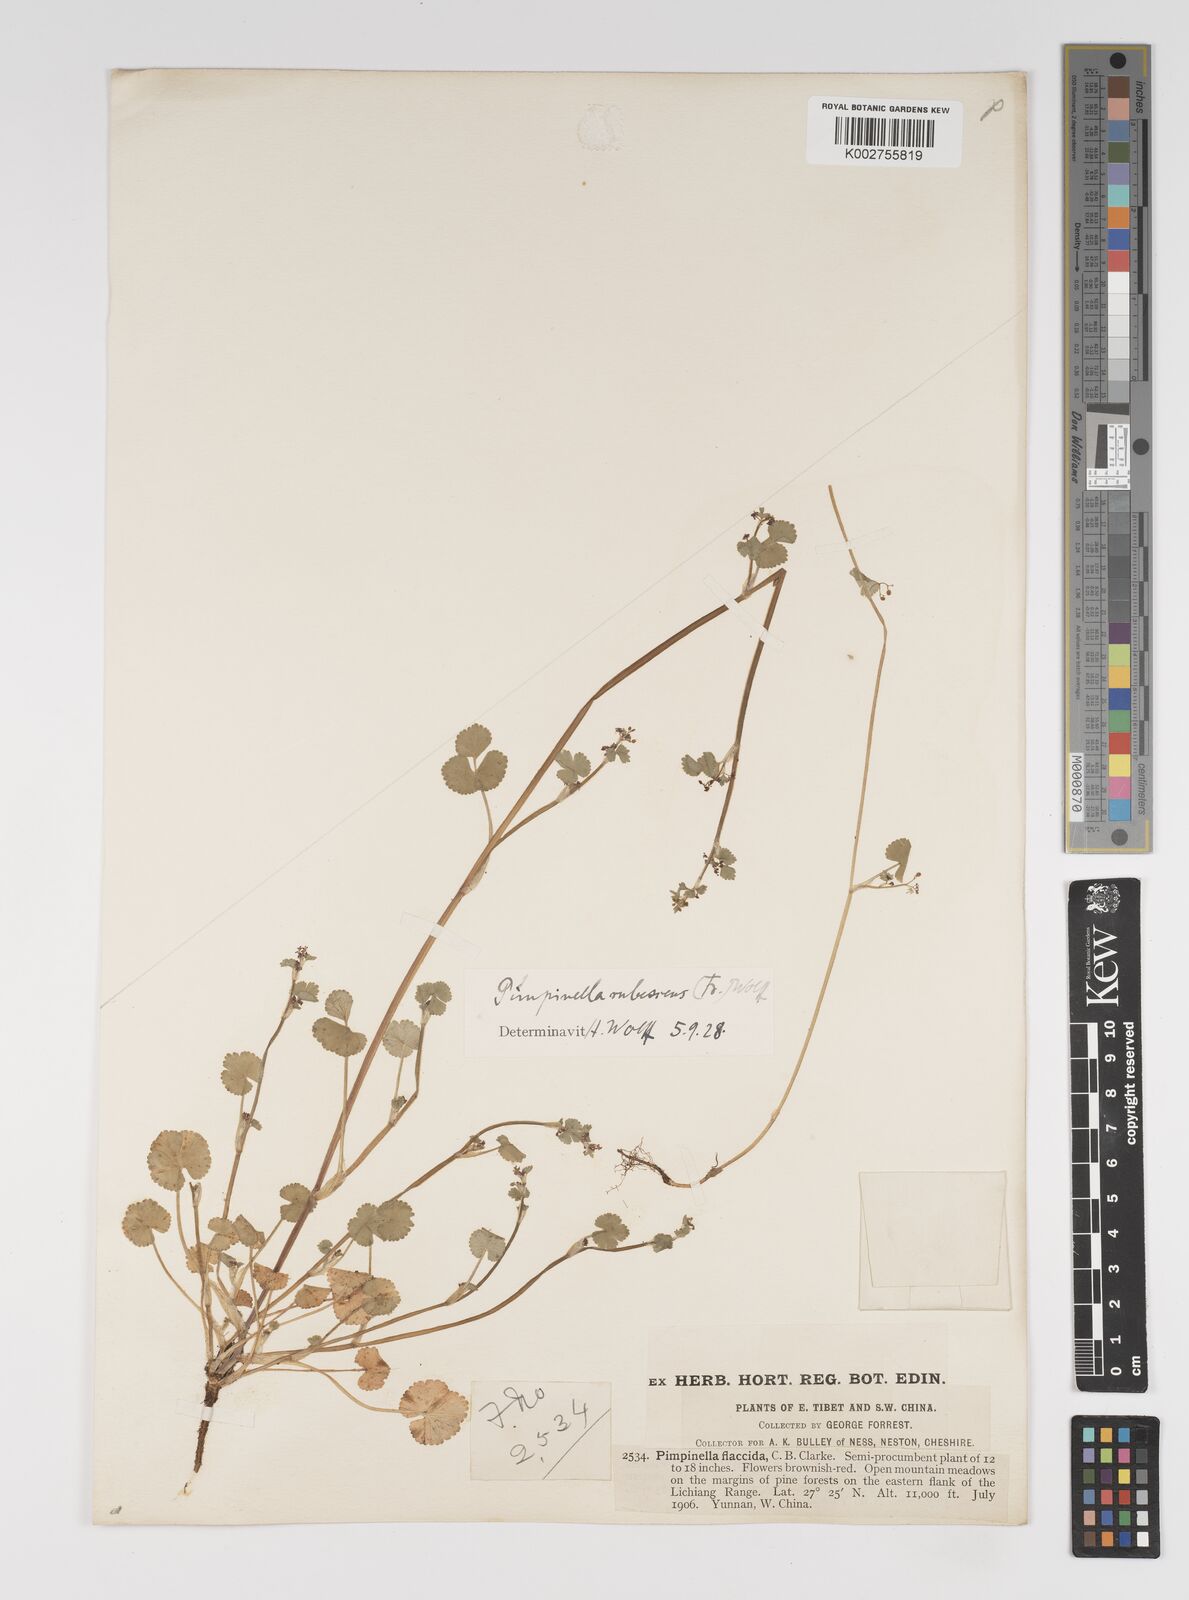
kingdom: Plantae
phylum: Tracheophyta
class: Magnoliopsida
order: Apiales
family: Apiaceae
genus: Pimpinella
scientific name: Pimpinella rubescens
